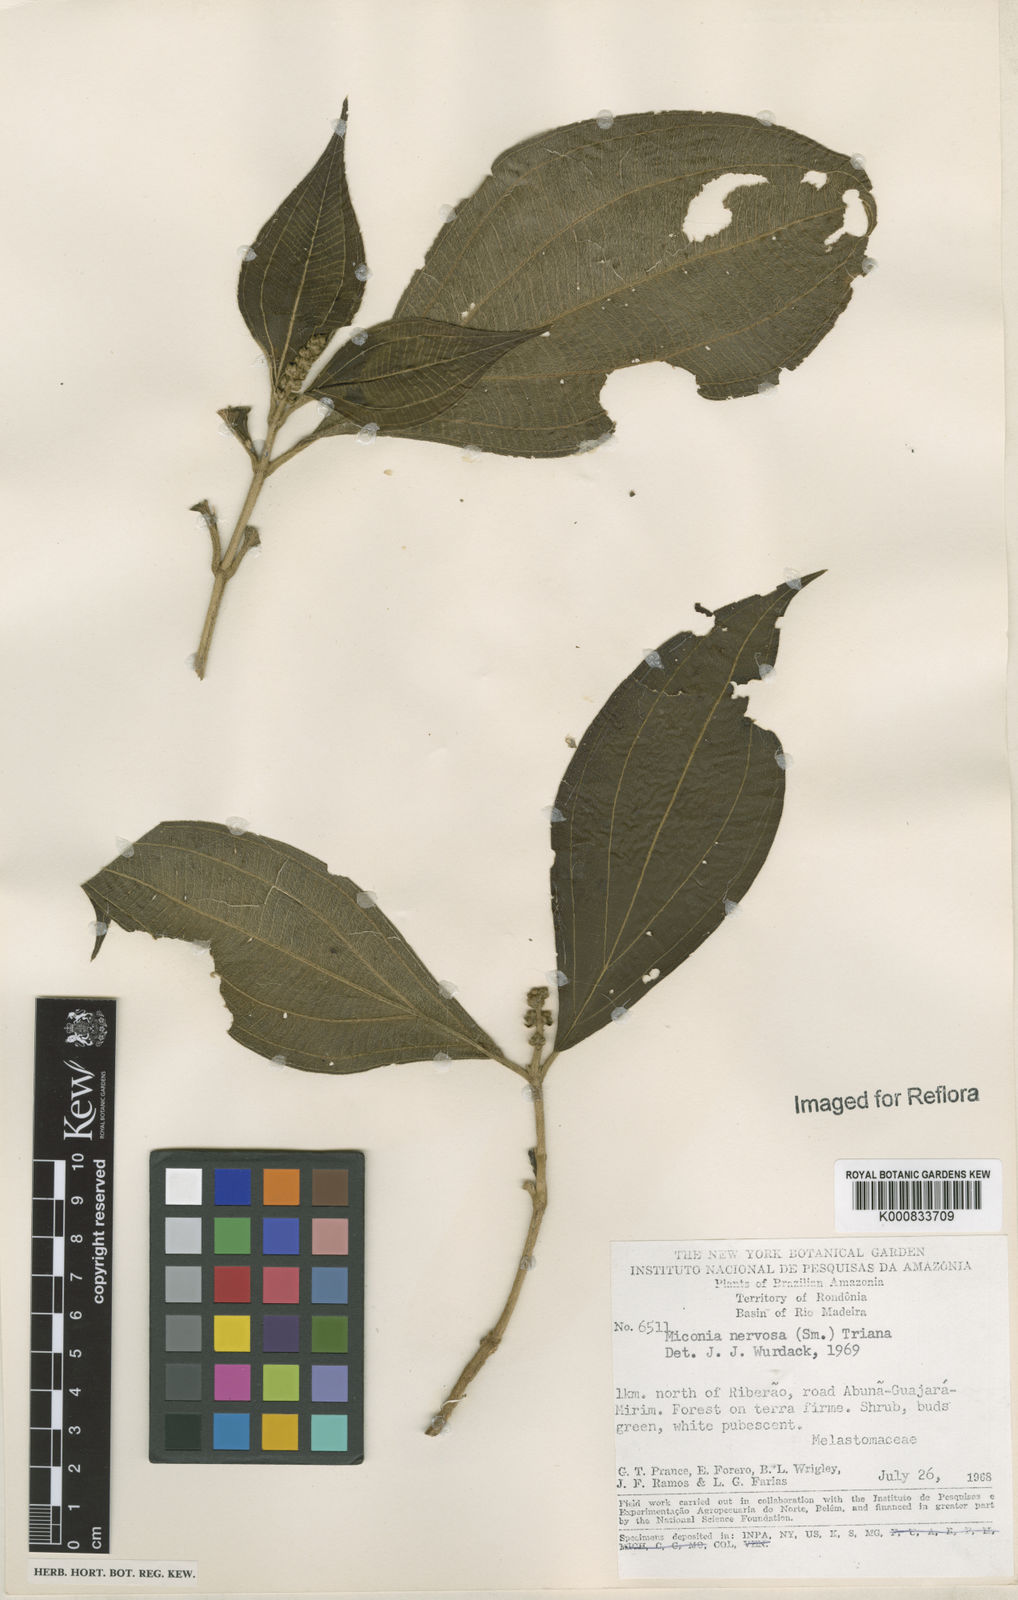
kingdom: Plantae
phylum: Tracheophyta
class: Magnoliopsida
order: Myrtales
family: Melastomataceae
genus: Miconia
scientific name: Miconia nervosa
